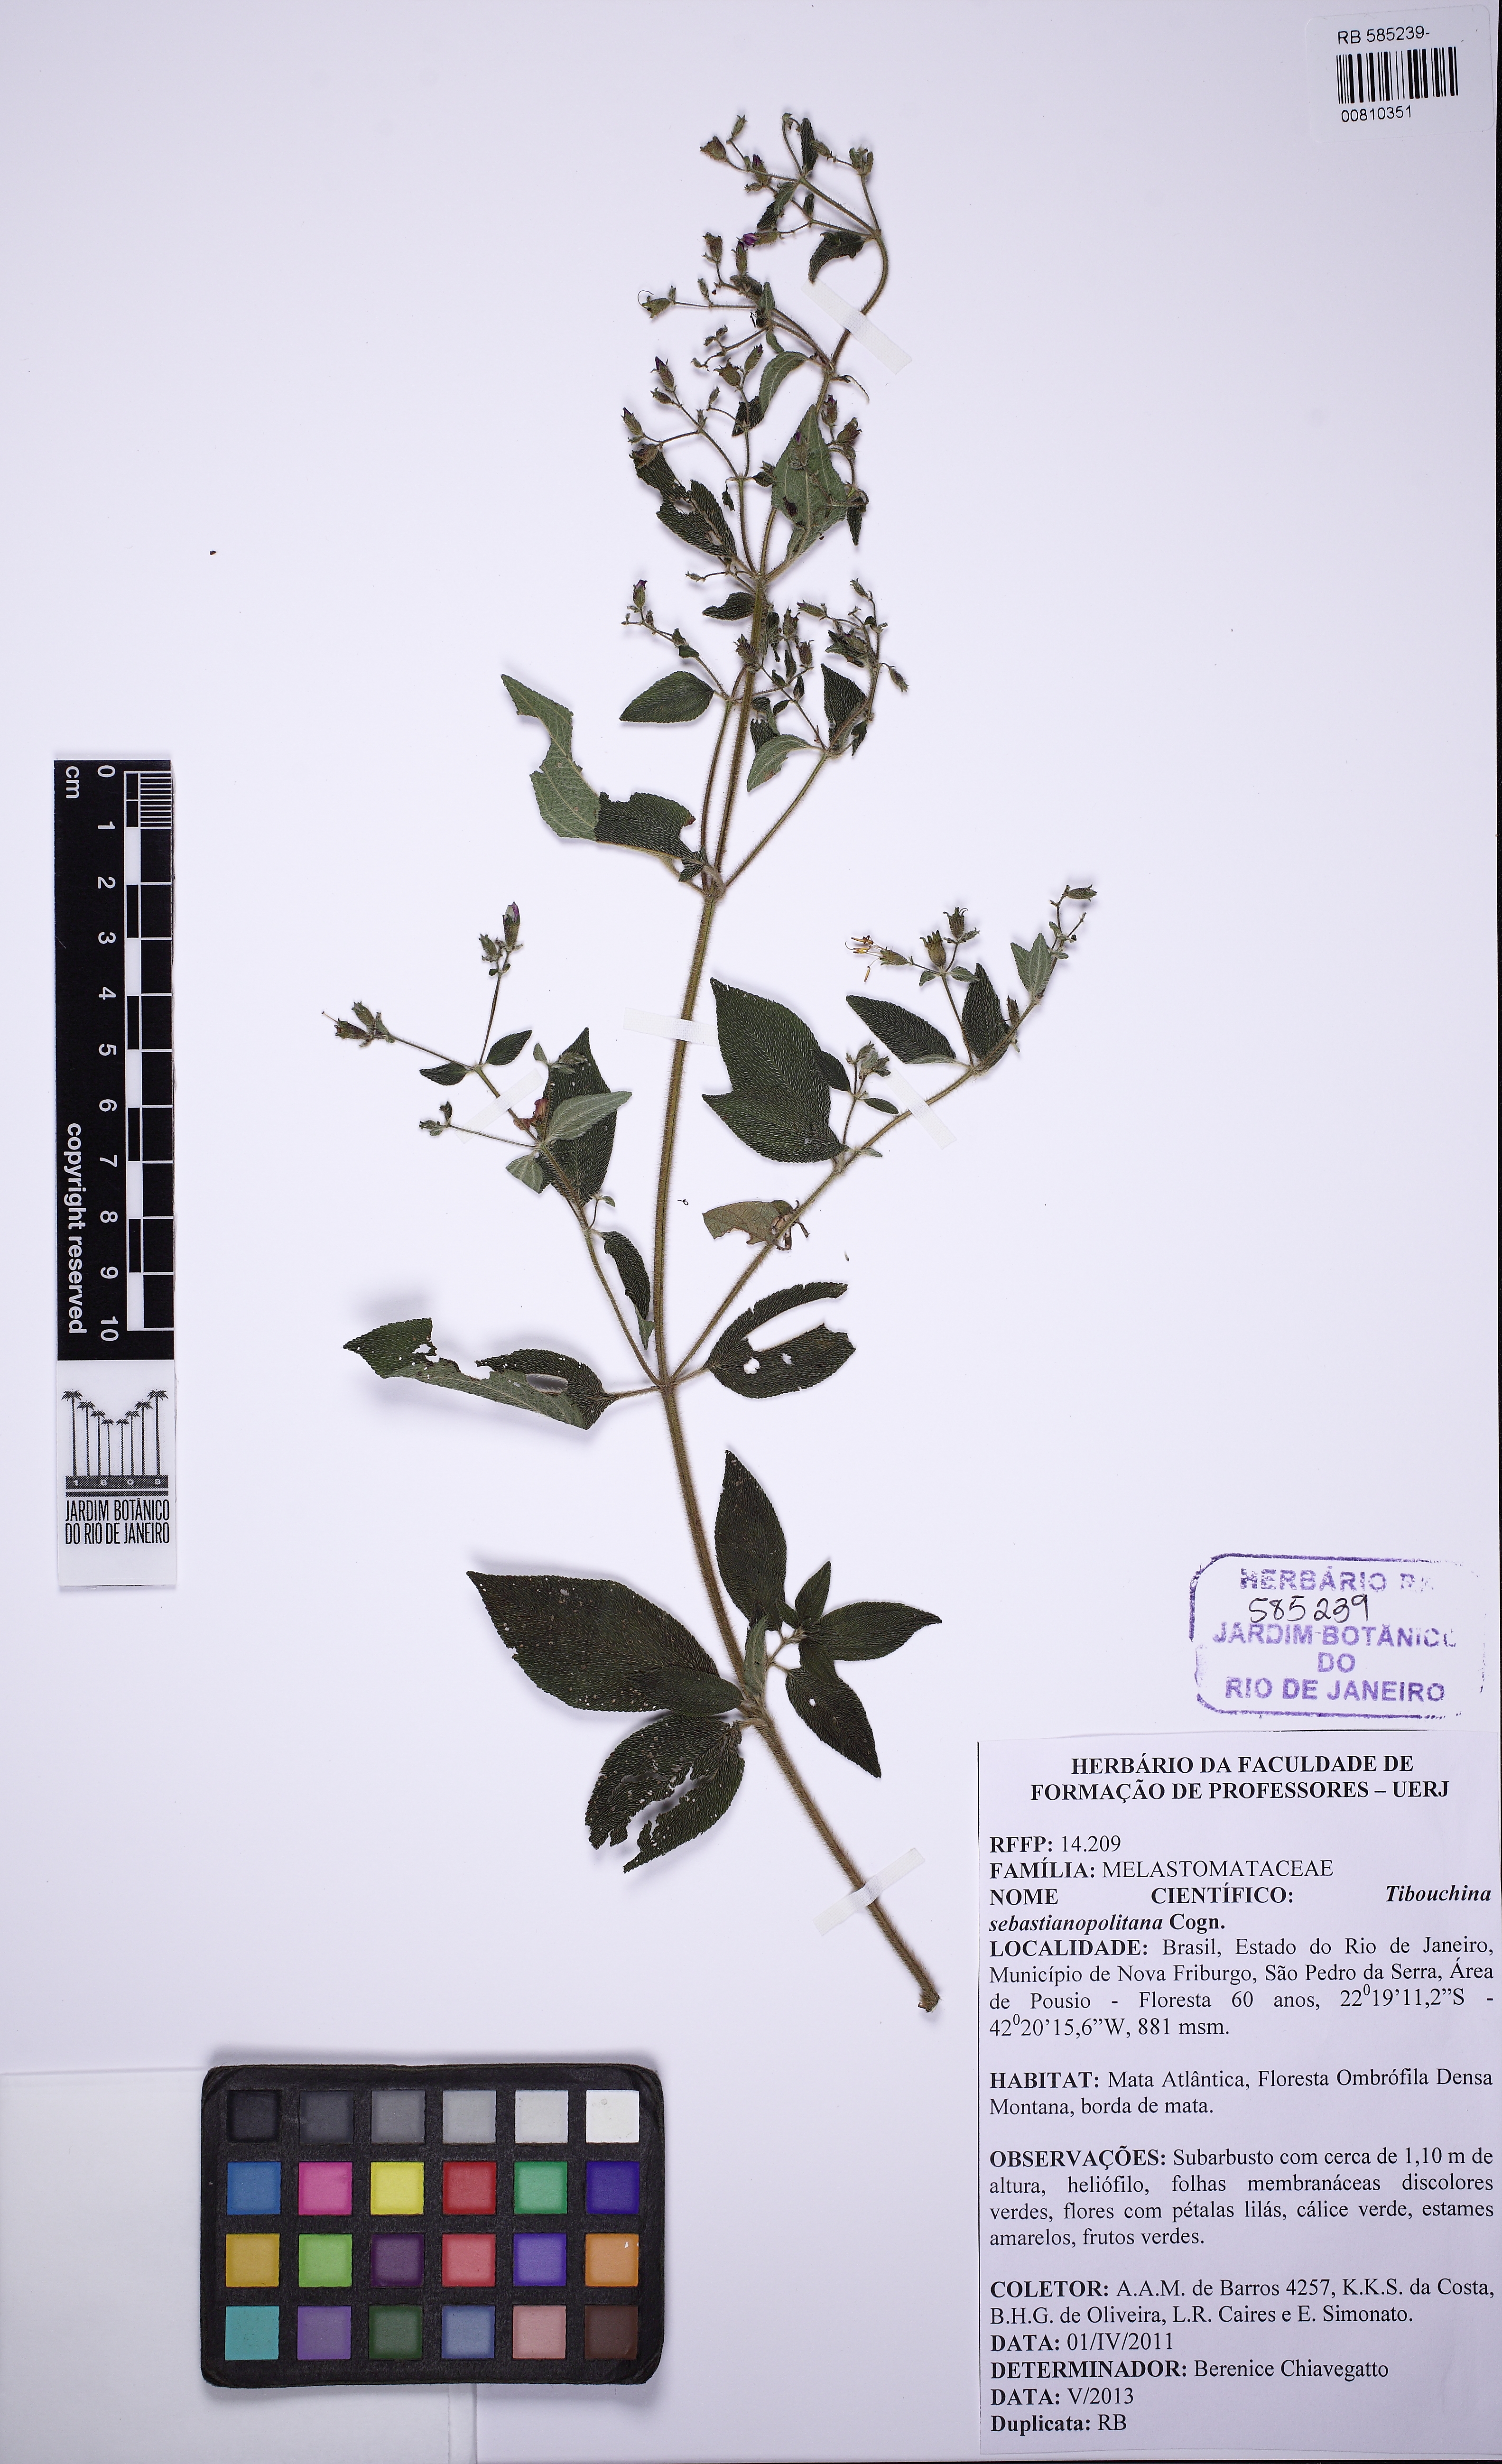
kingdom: Plantae
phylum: Tracheophyta
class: Magnoliopsida
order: Myrtales
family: Melastomataceae
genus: Chaetogastra
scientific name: Chaetogastra sebastianopolitana
